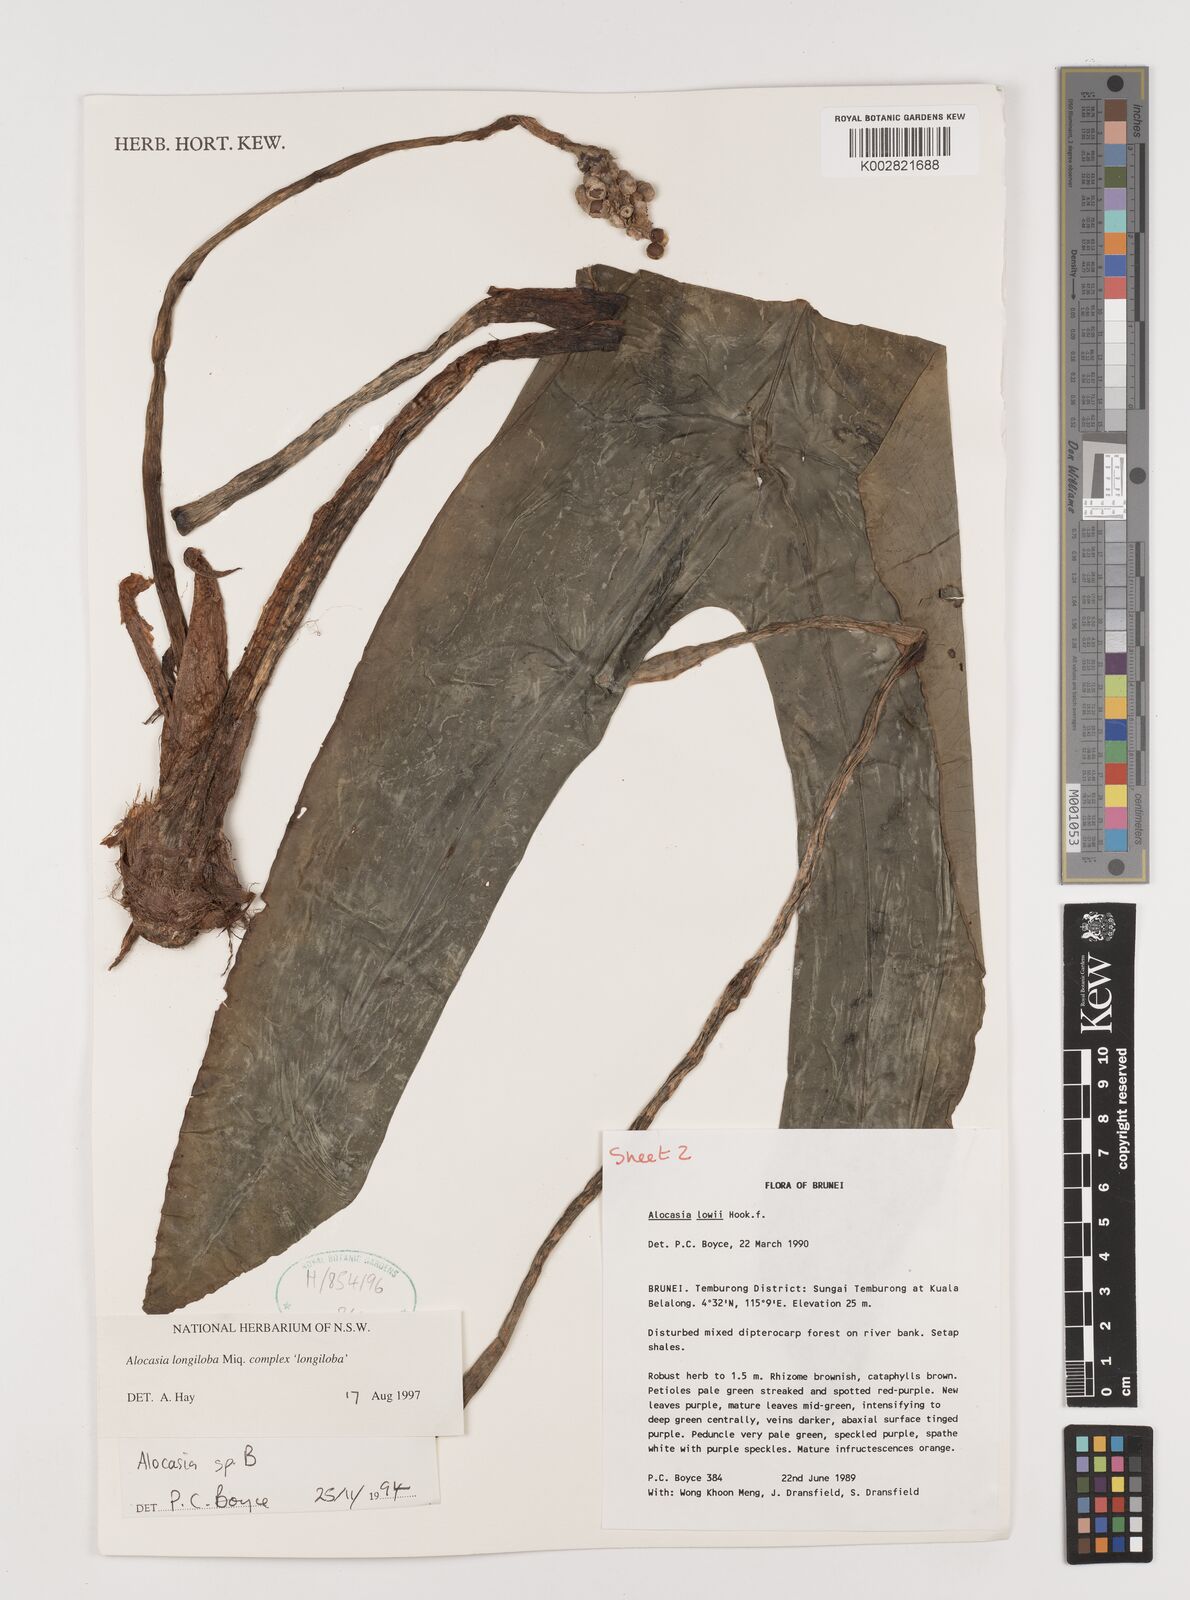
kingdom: Plantae
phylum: Tracheophyta
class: Liliopsida
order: Alismatales
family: Araceae
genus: Alocasia
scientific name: Alocasia longiloba
